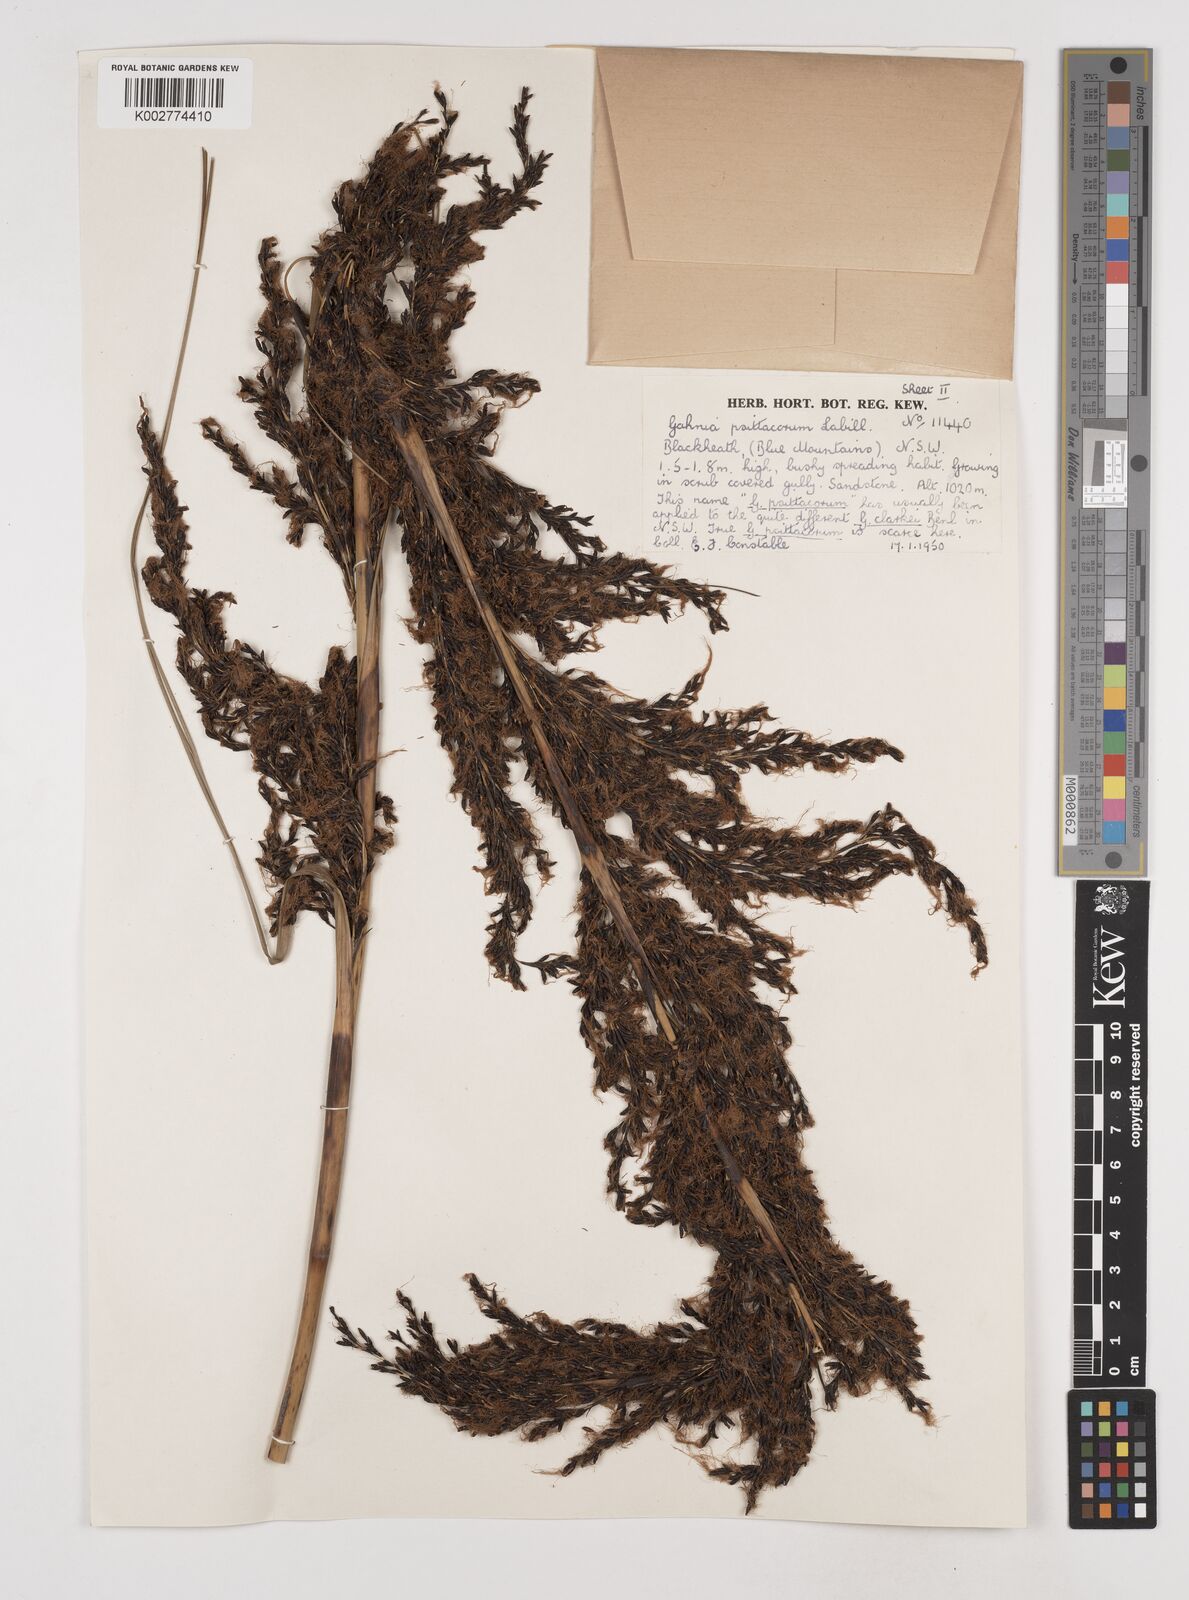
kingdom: Plantae
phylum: Tracheophyta
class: Liliopsida
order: Poales
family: Cyperaceae
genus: Gahnia
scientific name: Gahnia grandis
